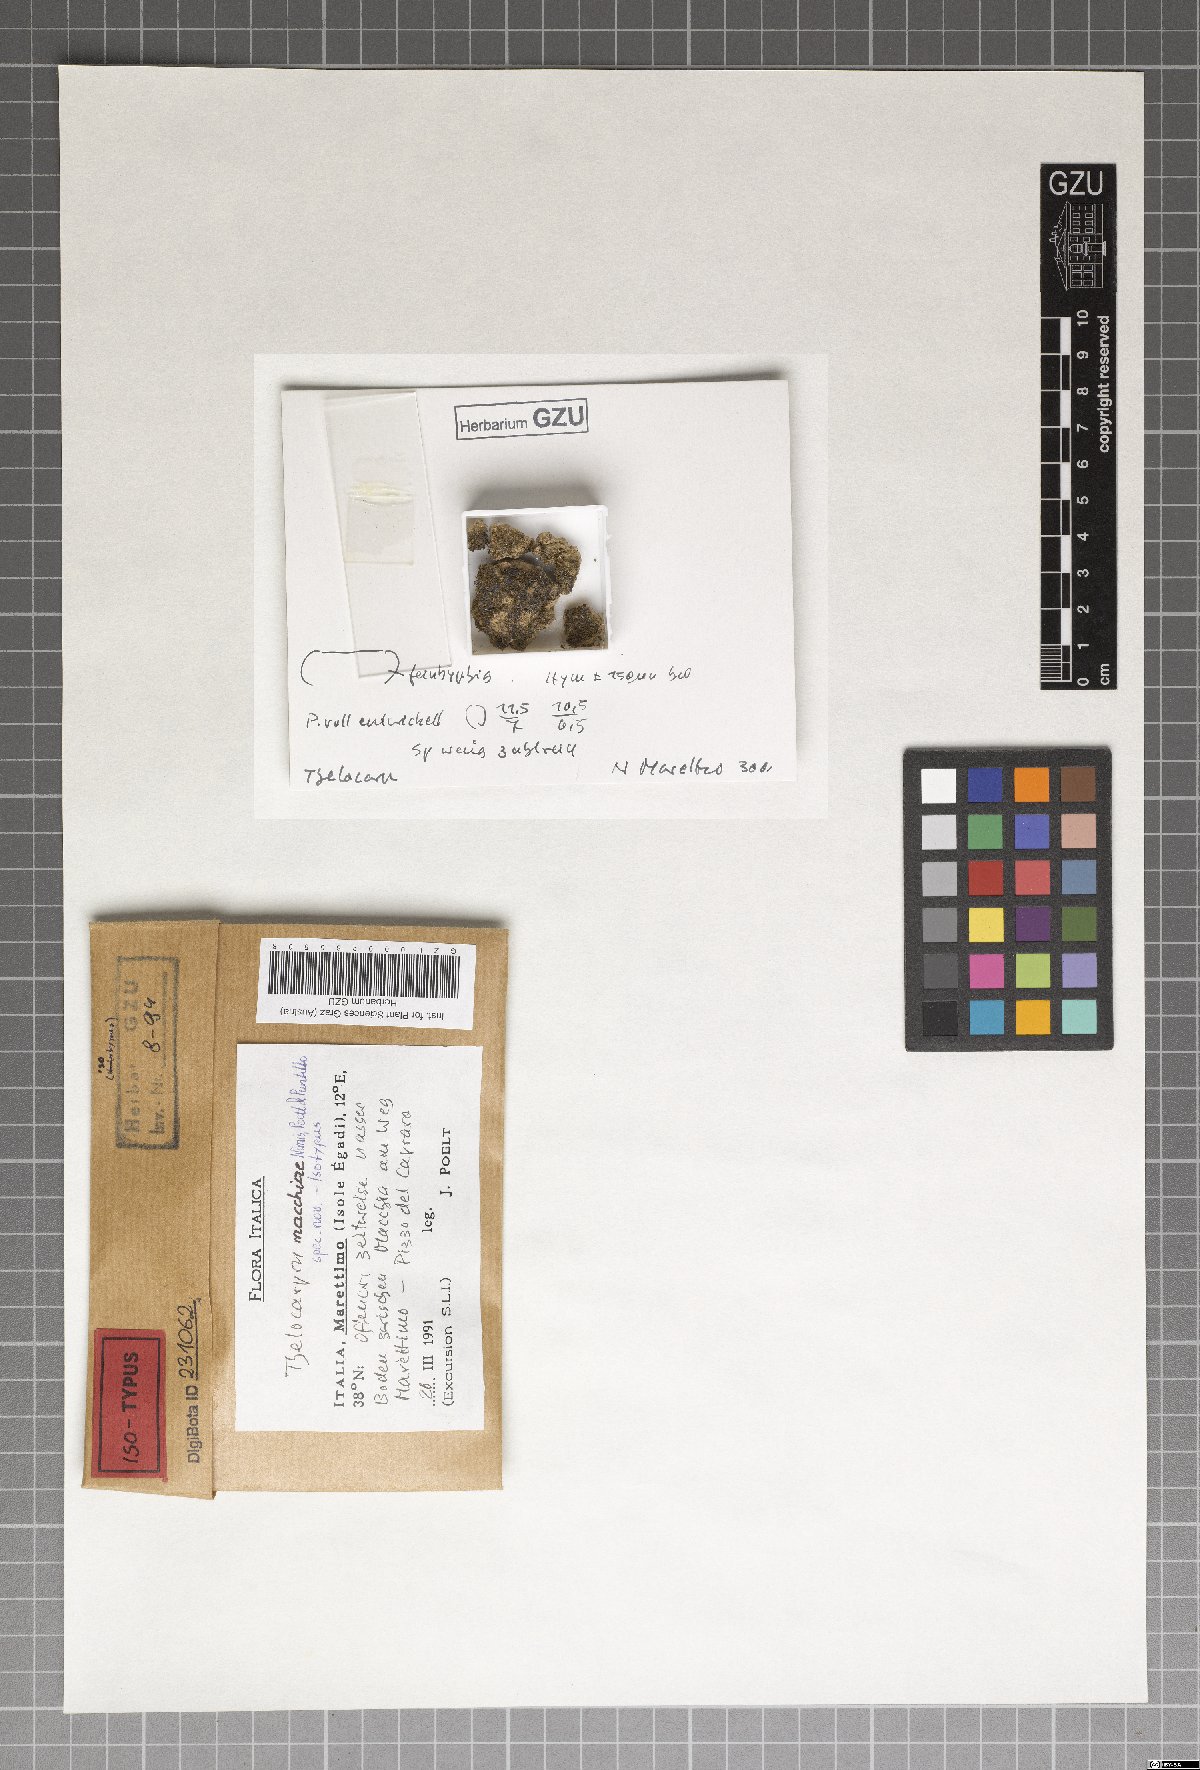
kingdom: Fungi
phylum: Ascomycota
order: Thelocarpales
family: Thelocarpaceae
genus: Thelocarpon
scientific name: Thelocarpon macchiae
